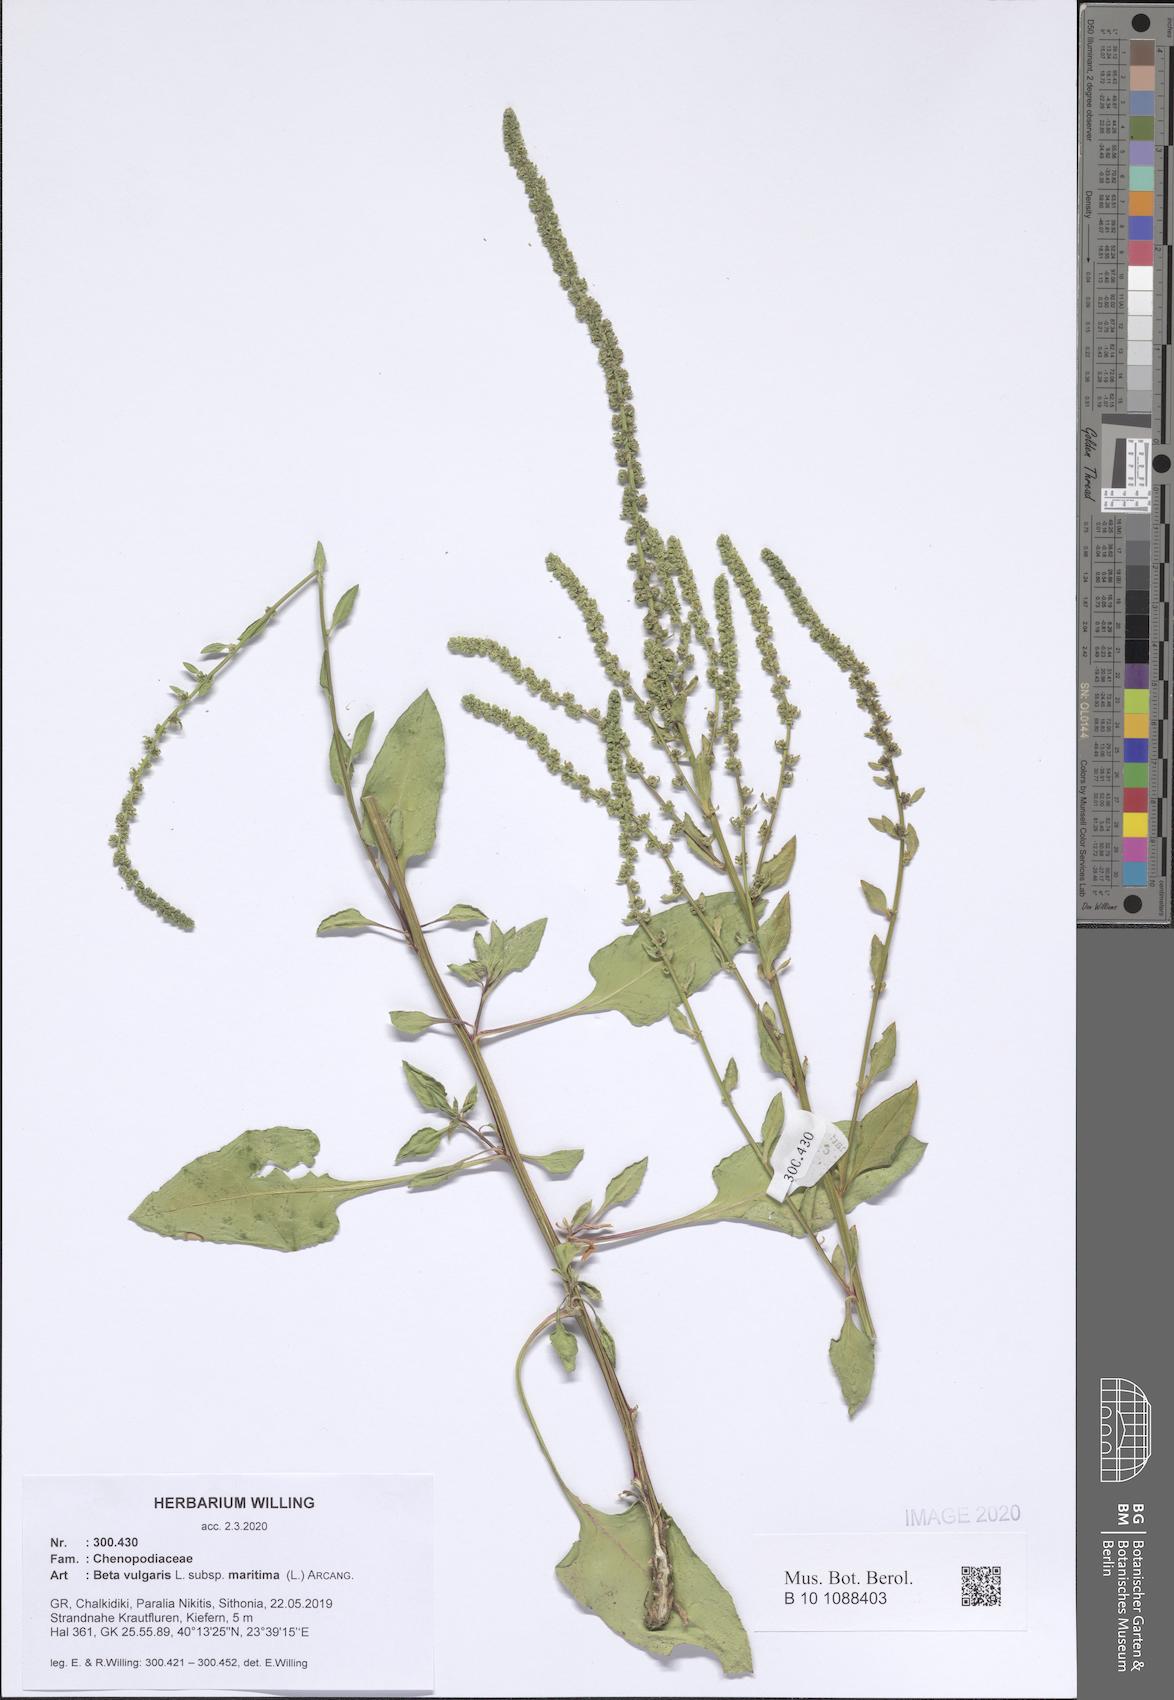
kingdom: Plantae
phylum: Tracheophyta
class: Magnoliopsida
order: Caryophyllales
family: Amaranthaceae
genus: Beta
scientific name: Beta maritima
